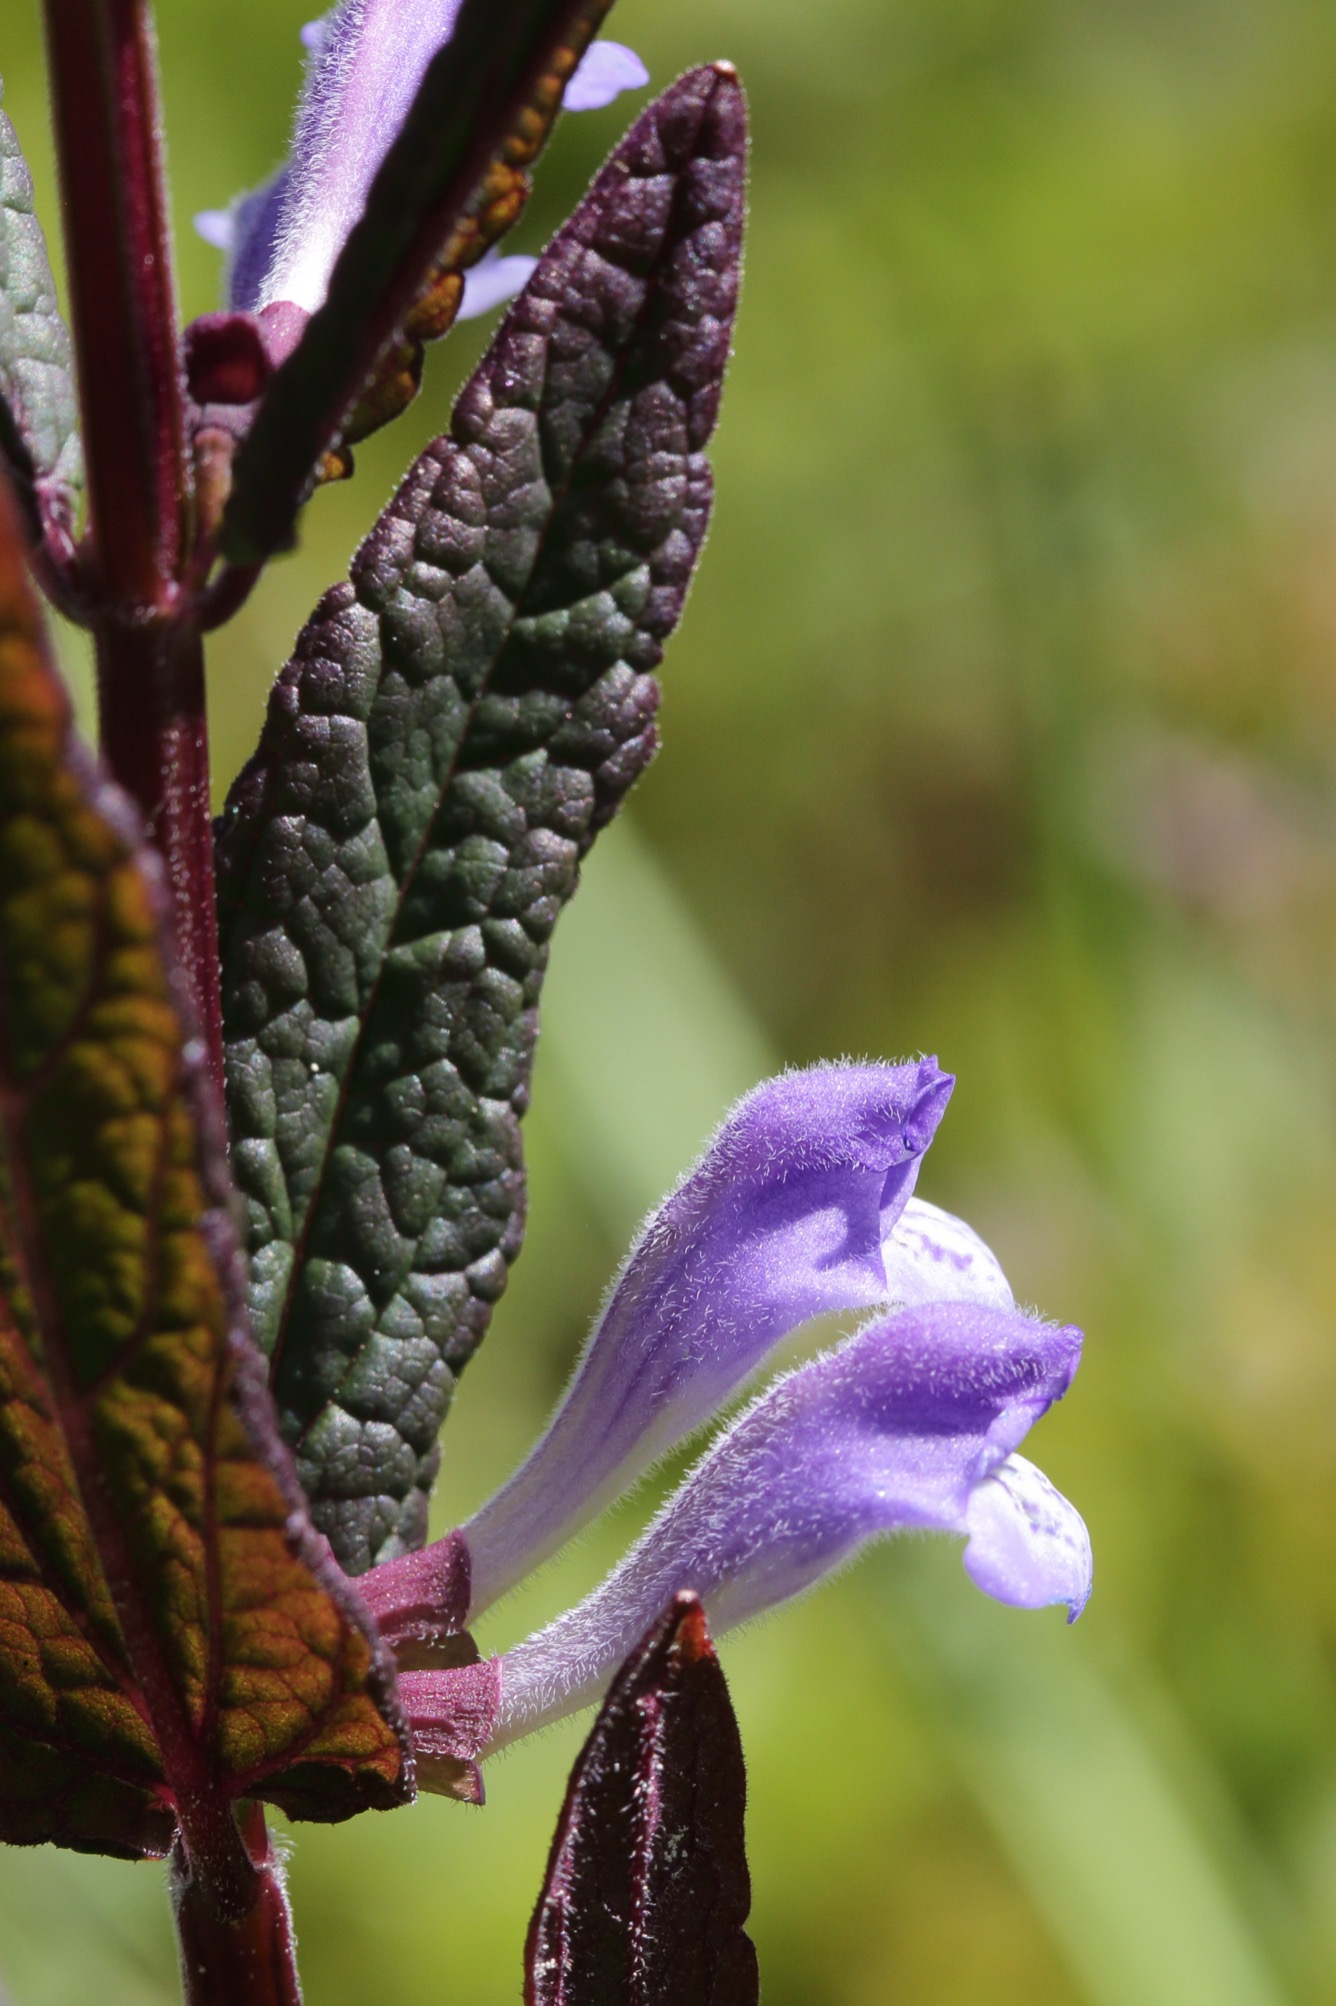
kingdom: Plantae
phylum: Tracheophyta
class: Magnoliopsida
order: Lamiales
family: Lamiaceae
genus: Scutellaria
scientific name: Scutellaria galericulata
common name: Almindelig skjolddrager
